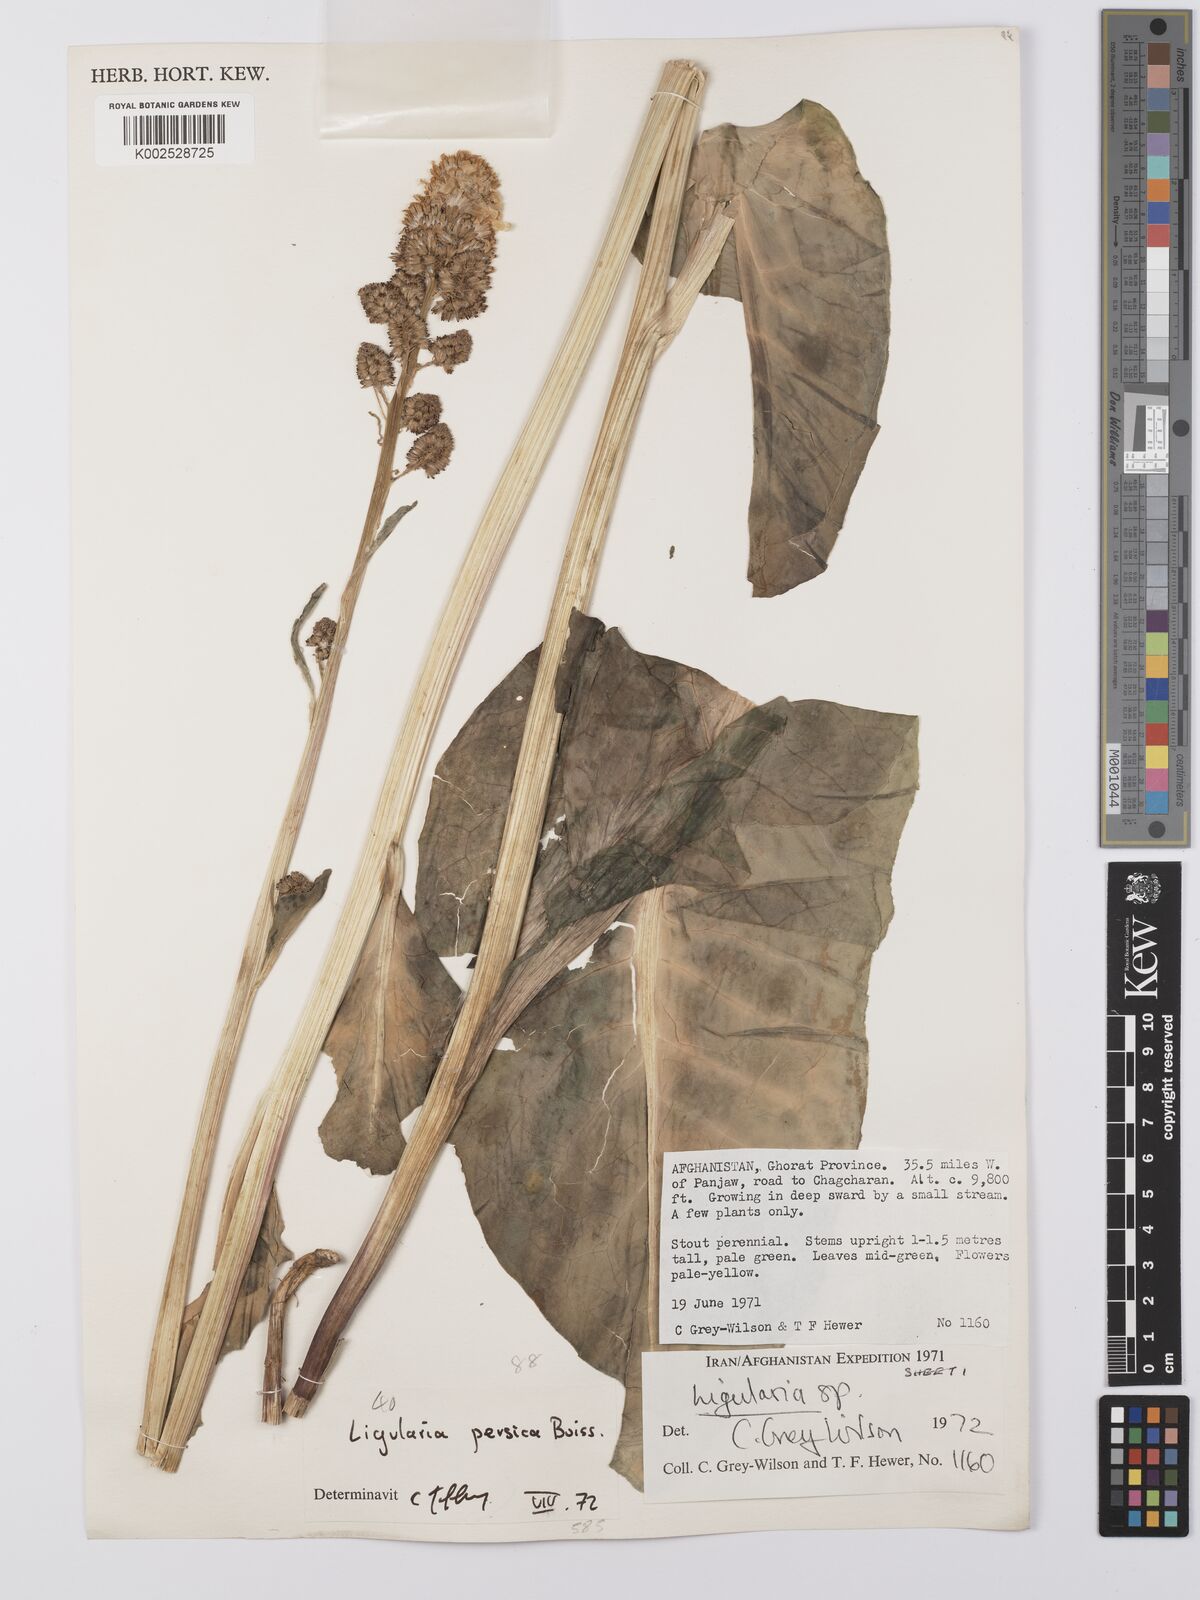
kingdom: Plantae
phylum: Tracheophyta
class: Magnoliopsida
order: Asterales
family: Asteraceae
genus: Ligularia
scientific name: Ligularia afghanica
